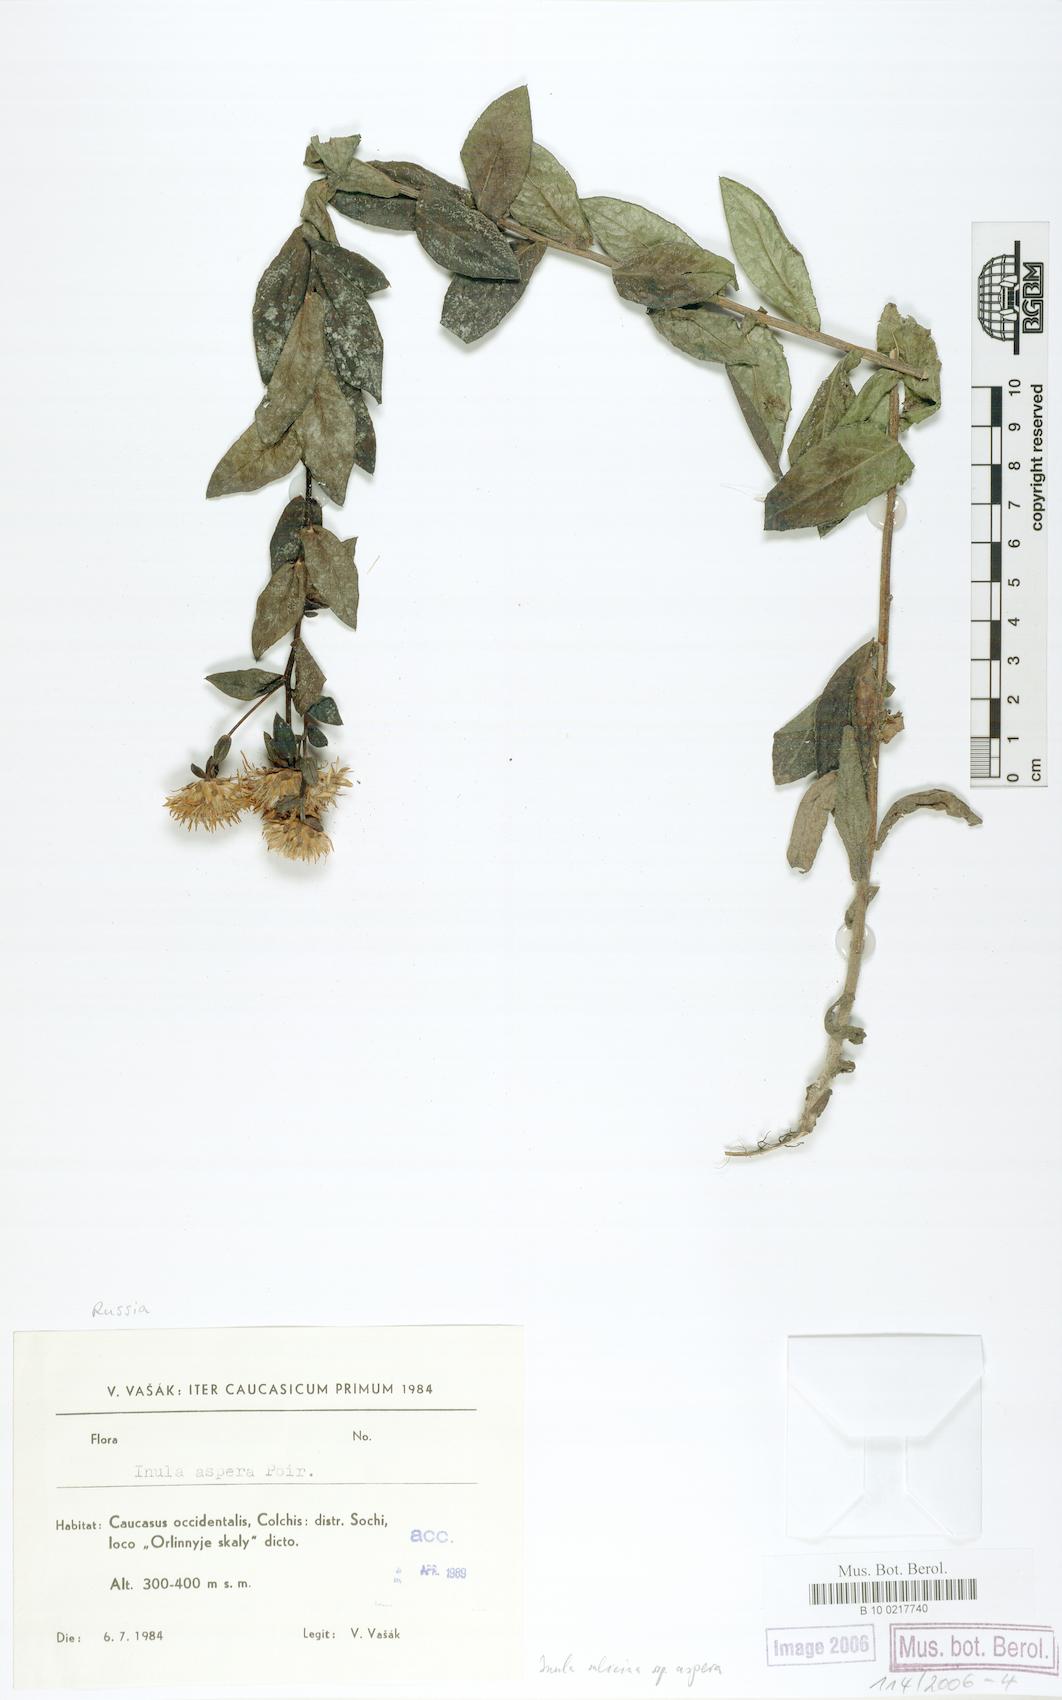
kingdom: Plantae
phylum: Tracheophyta
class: Magnoliopsida
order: Asterales
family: Asteraceae
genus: Pentanema
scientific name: Pentanema salicinum
